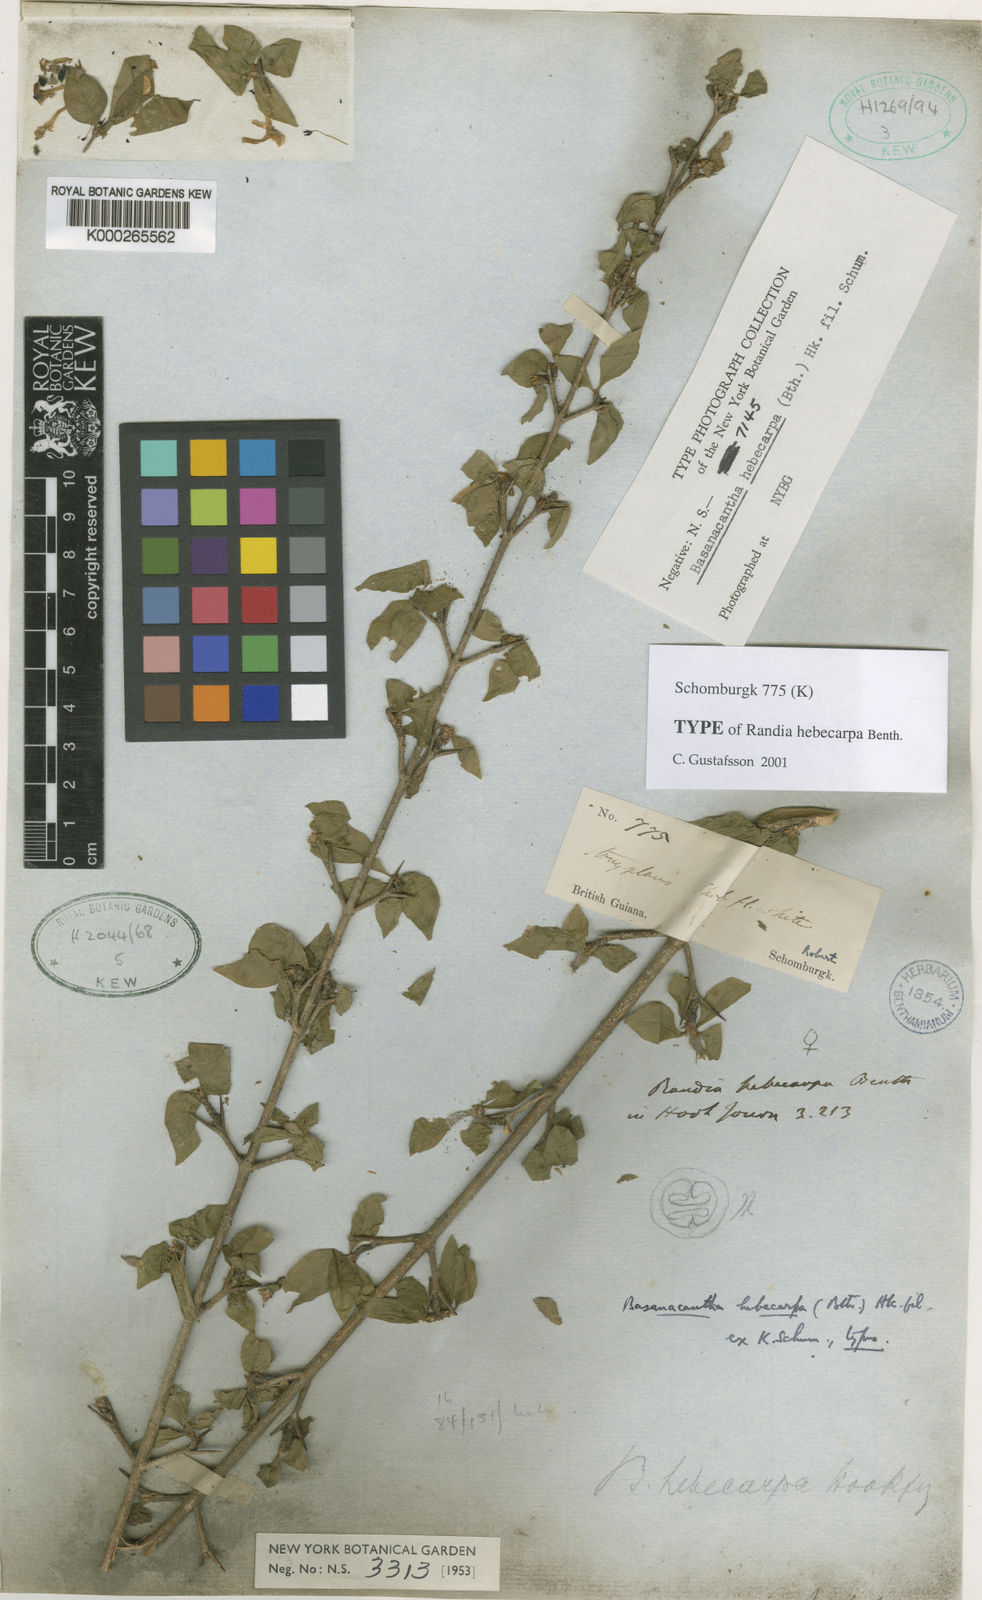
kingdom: Plantae
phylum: Tracheophyta
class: Magnoliopsida
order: Gentianales
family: Rubiaceae
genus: Randia
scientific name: Randia hebecarpa
